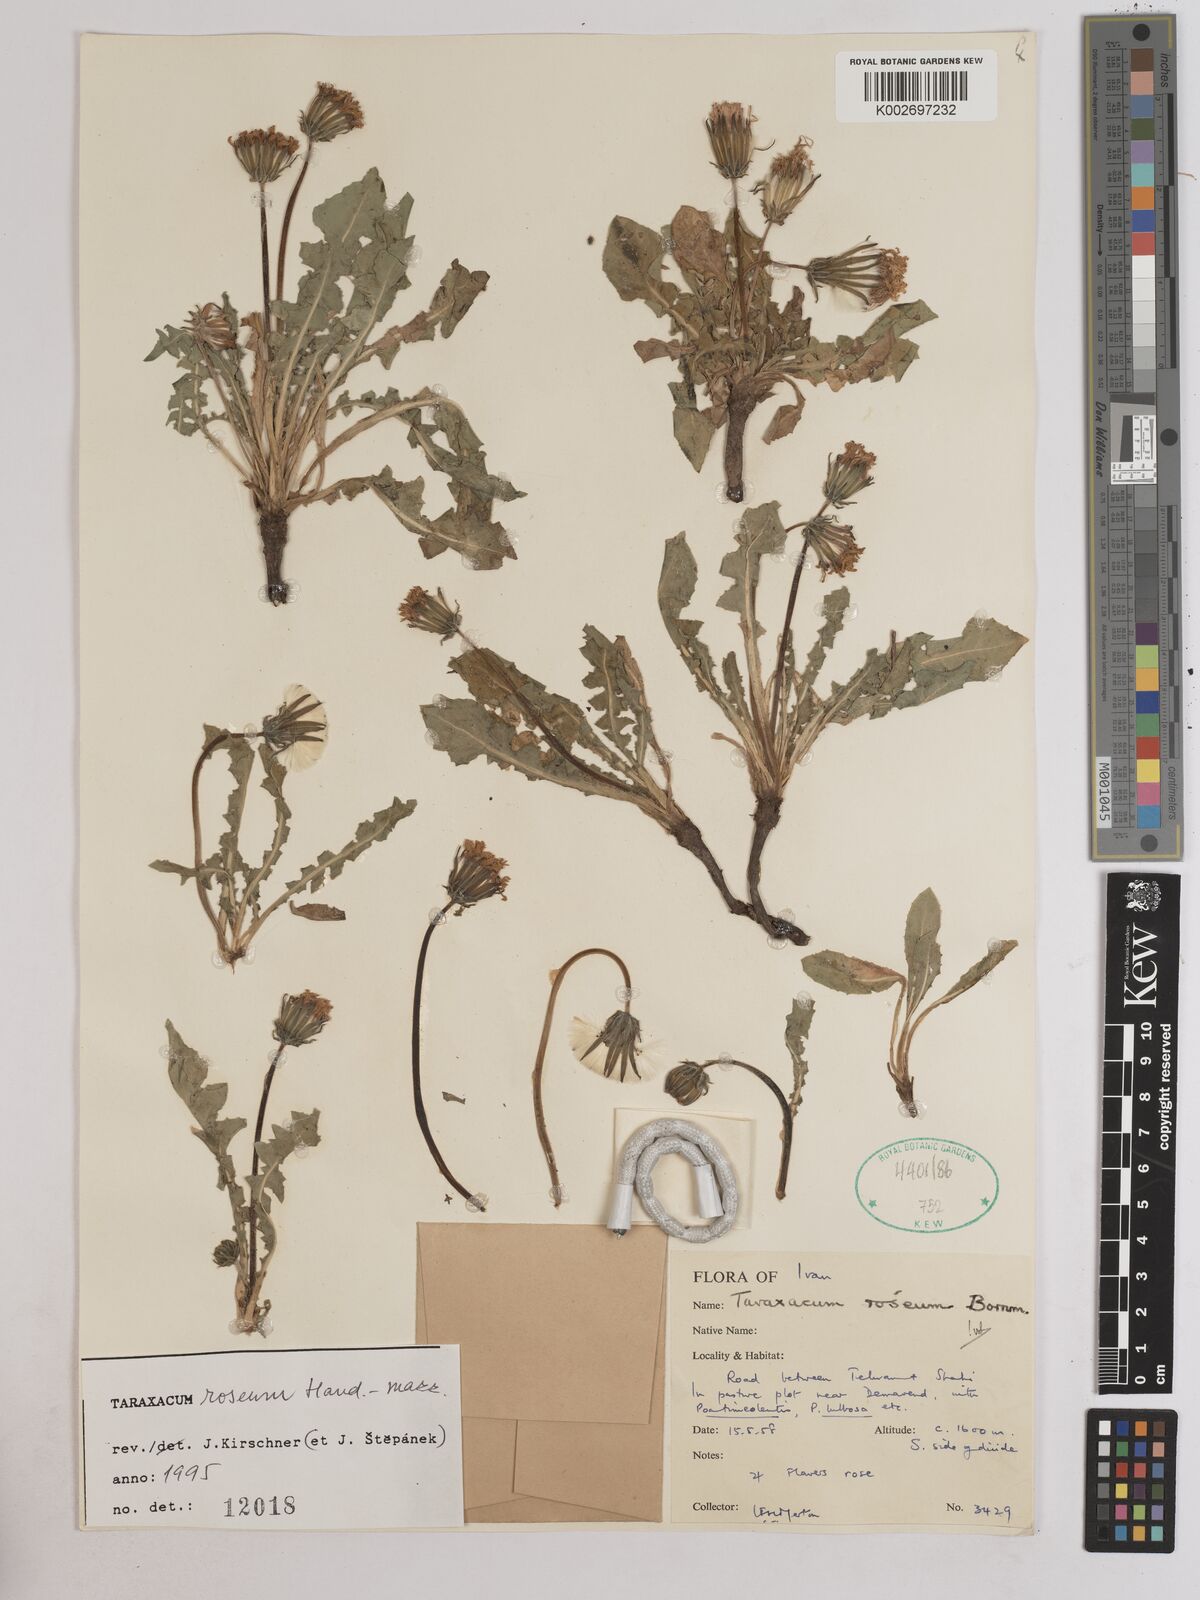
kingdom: Plantae
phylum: Tracheophyta
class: Magnoliopsida
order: Asterales
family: Asteraceae
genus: Taraxacum
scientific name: Taraxacum roseum
